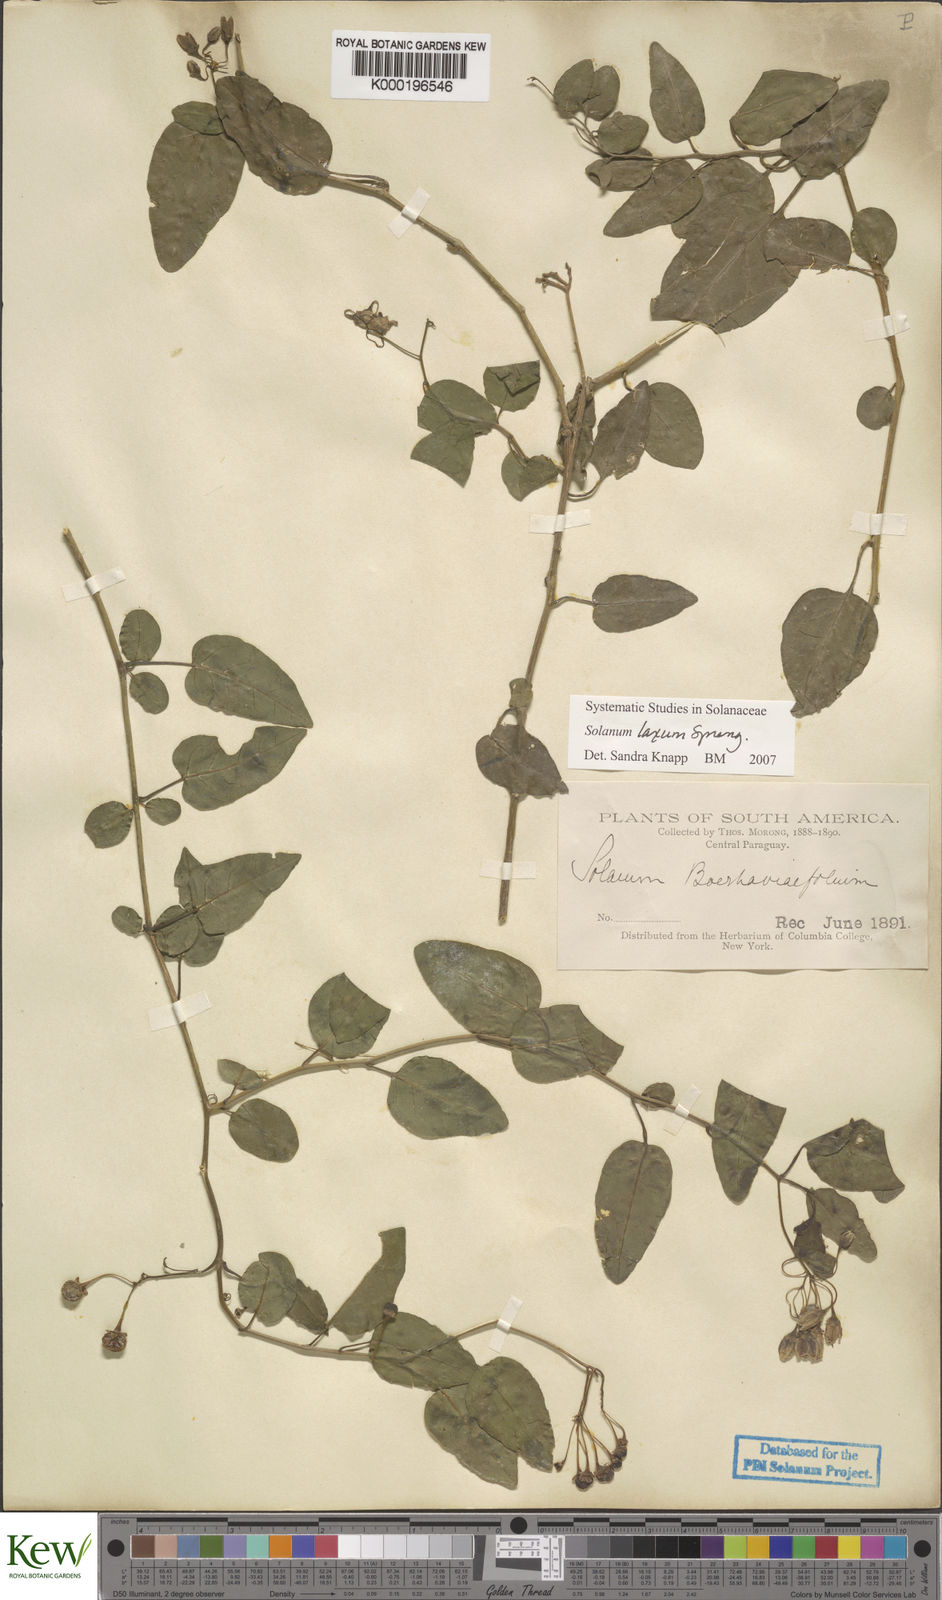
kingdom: Plantae
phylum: Tracheophyta
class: Magnoliopsida
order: Solanales
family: Solanaceae
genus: Solanum
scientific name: Solanum laxum
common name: Nightshade
